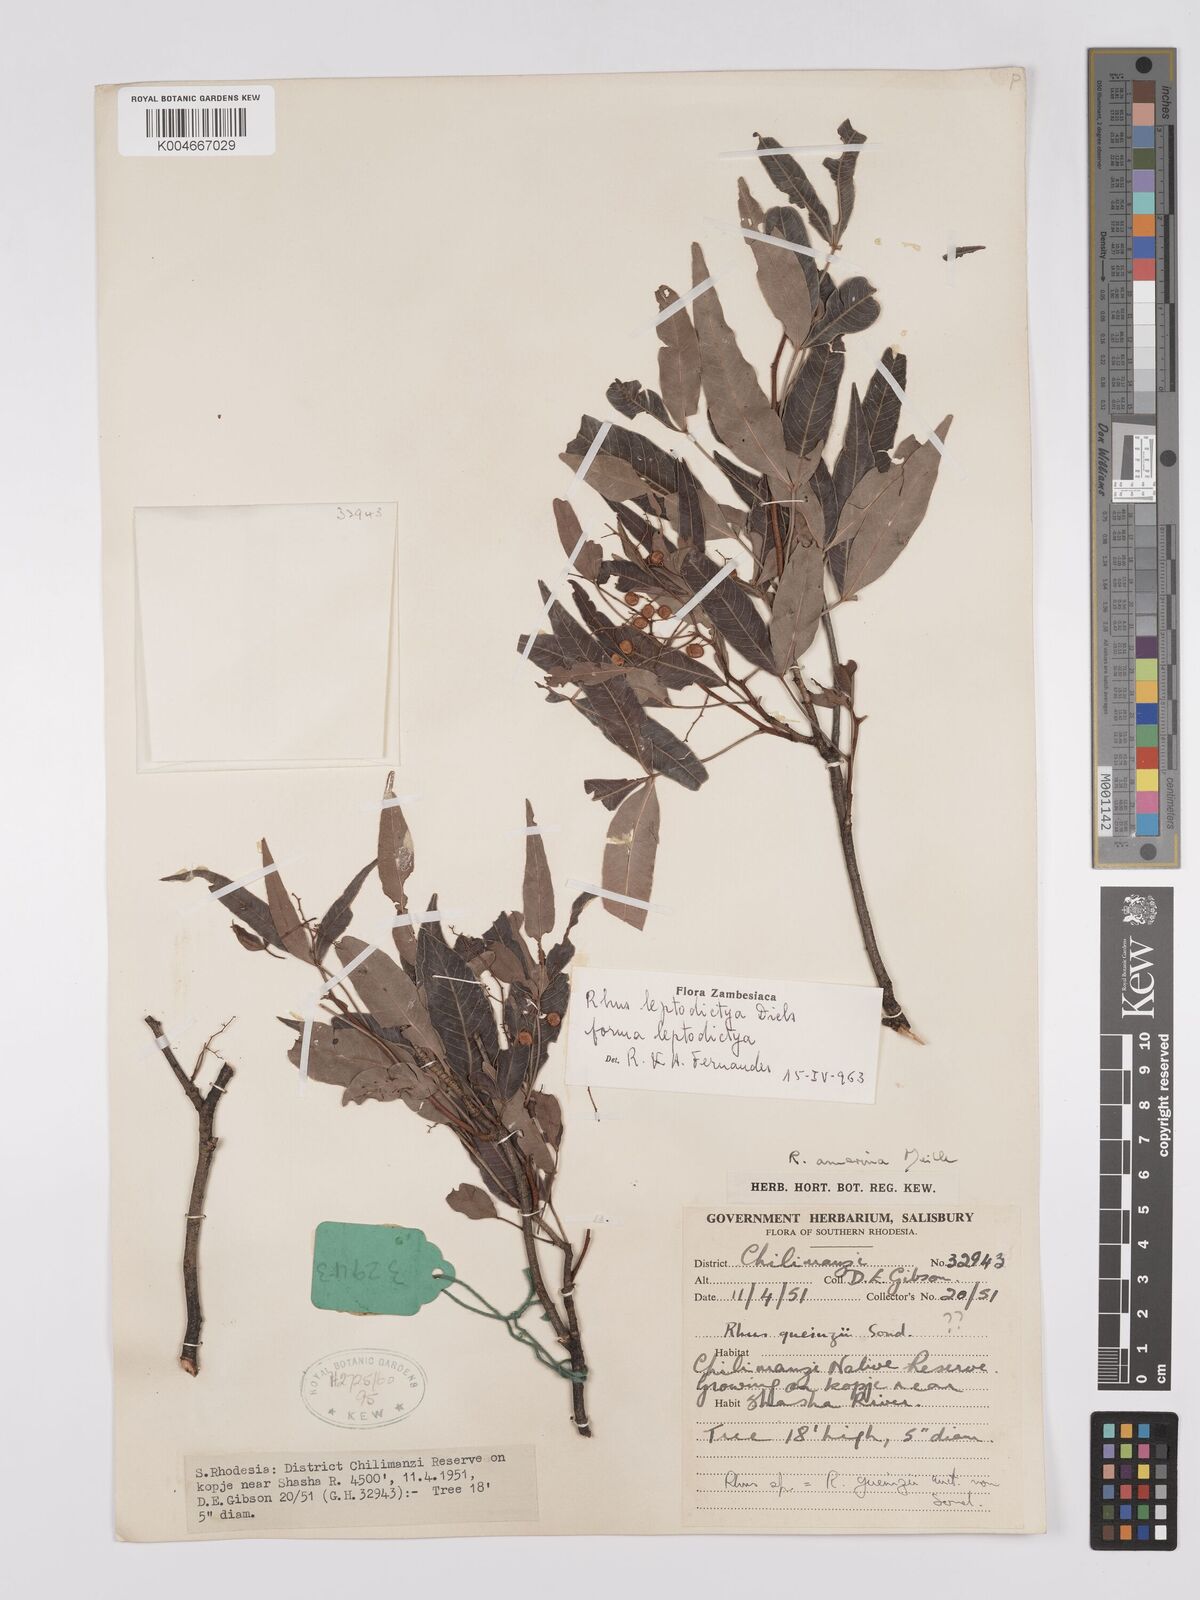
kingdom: Plantae
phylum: Tracheophyta
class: Magnoliopsida
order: Sapindales
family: Anacardiaceae
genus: Searsia
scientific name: Searsia leptodictya
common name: Mountain karee
